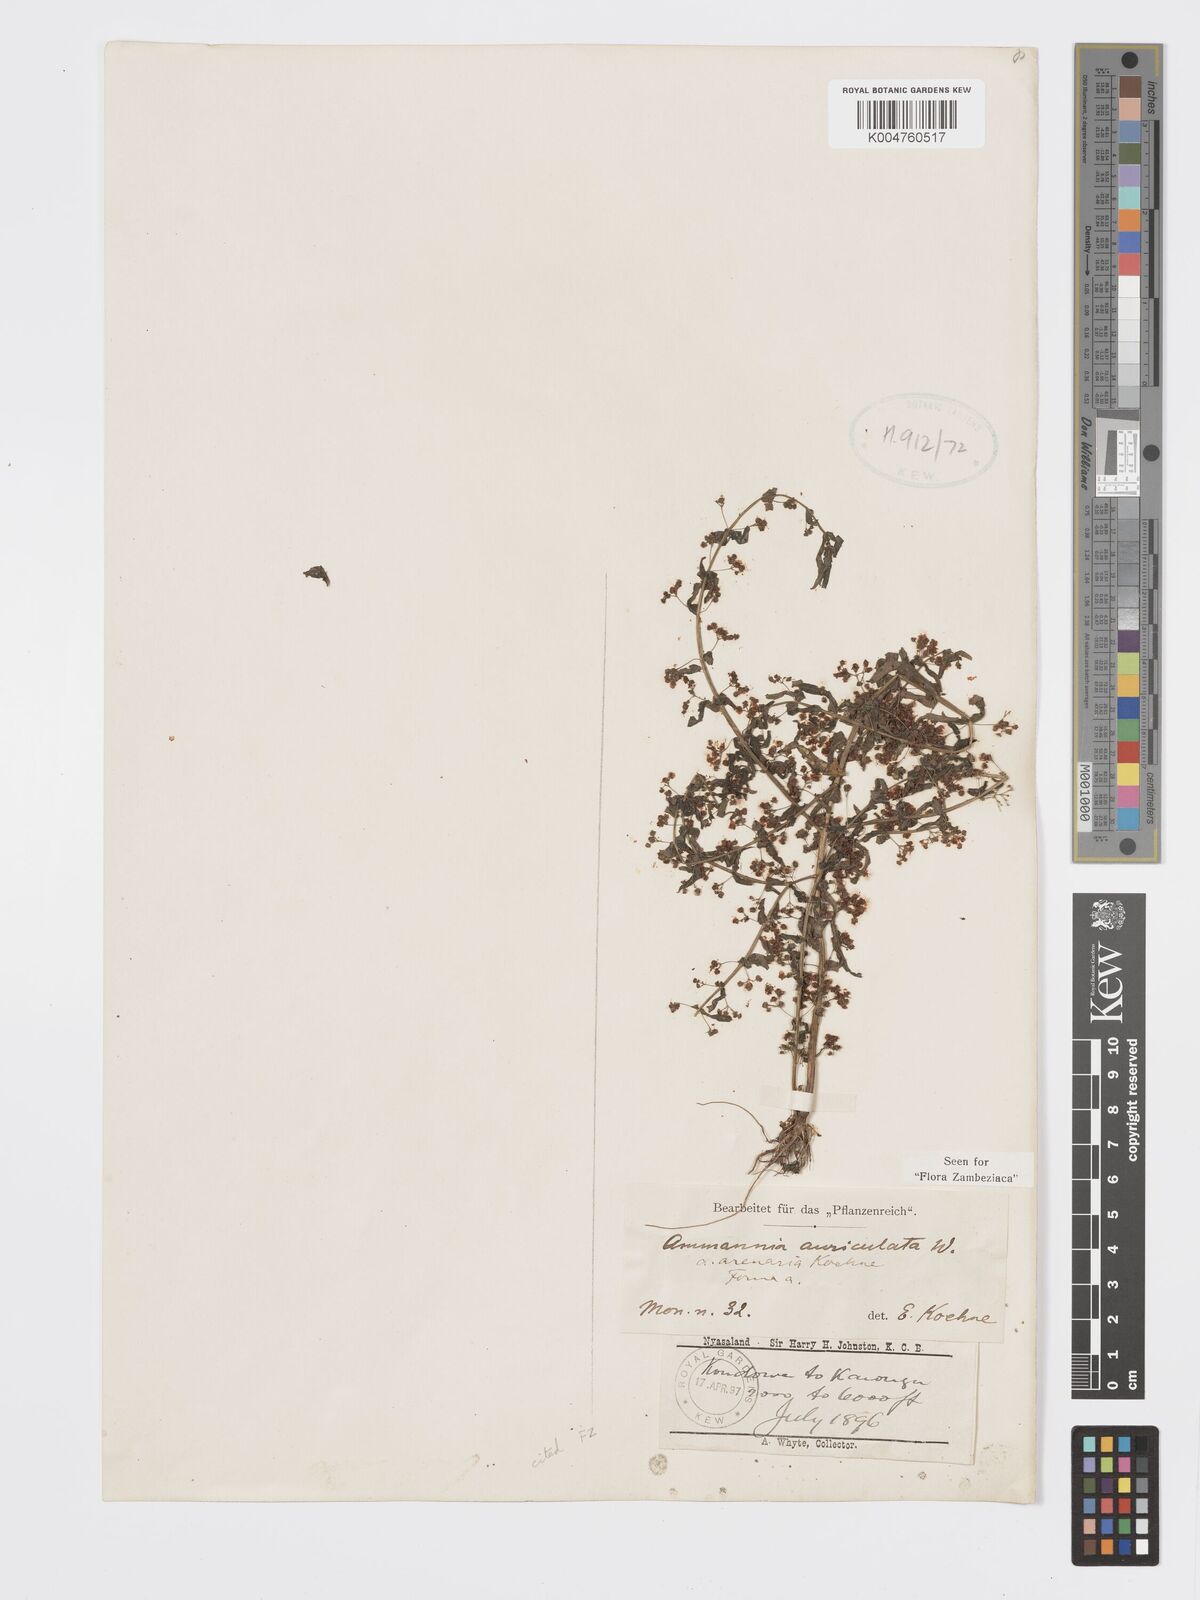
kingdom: Plantae
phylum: Tracheophyta
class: Magnoliopsida
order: Myrtales
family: Lythraceae
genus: Ammannia
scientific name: Ammannia auriculata
